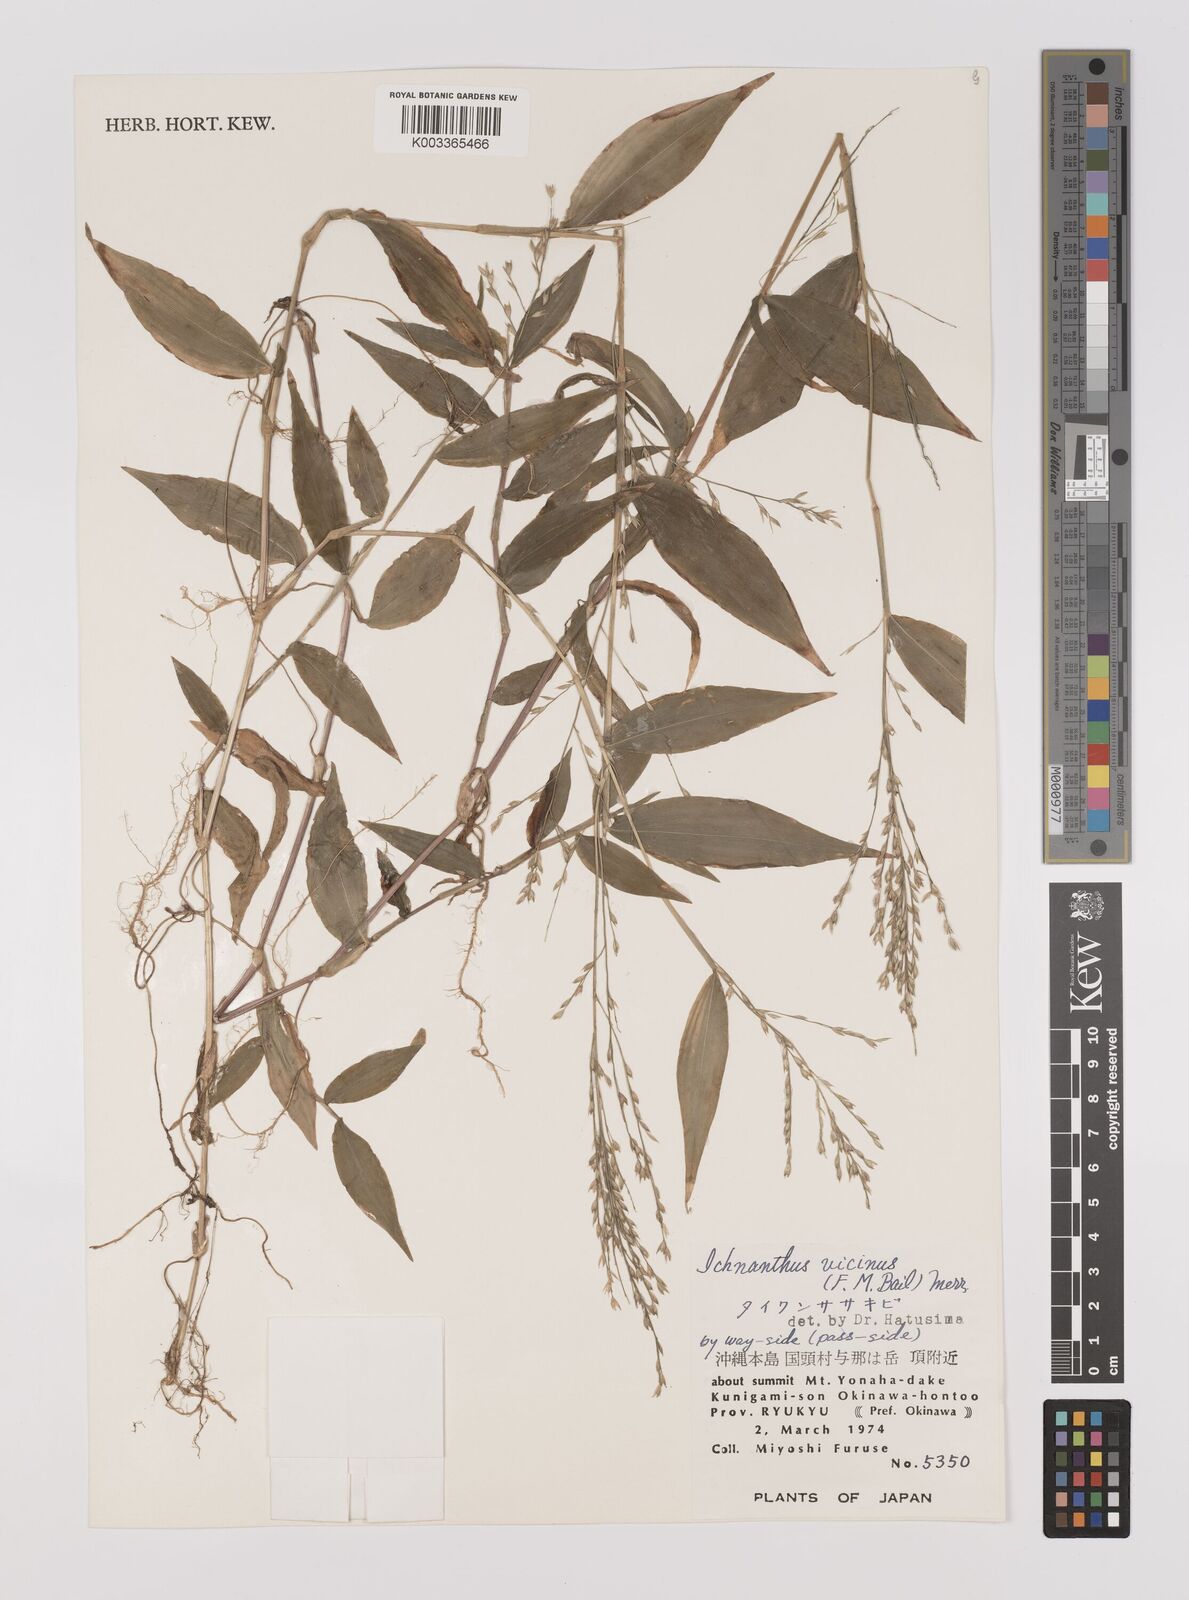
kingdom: Plantae
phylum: Tracheophyta
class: Liliopsida
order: Poales
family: Poaceae
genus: Ichnanthus
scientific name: Ichnanthus pallens
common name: Water grass
